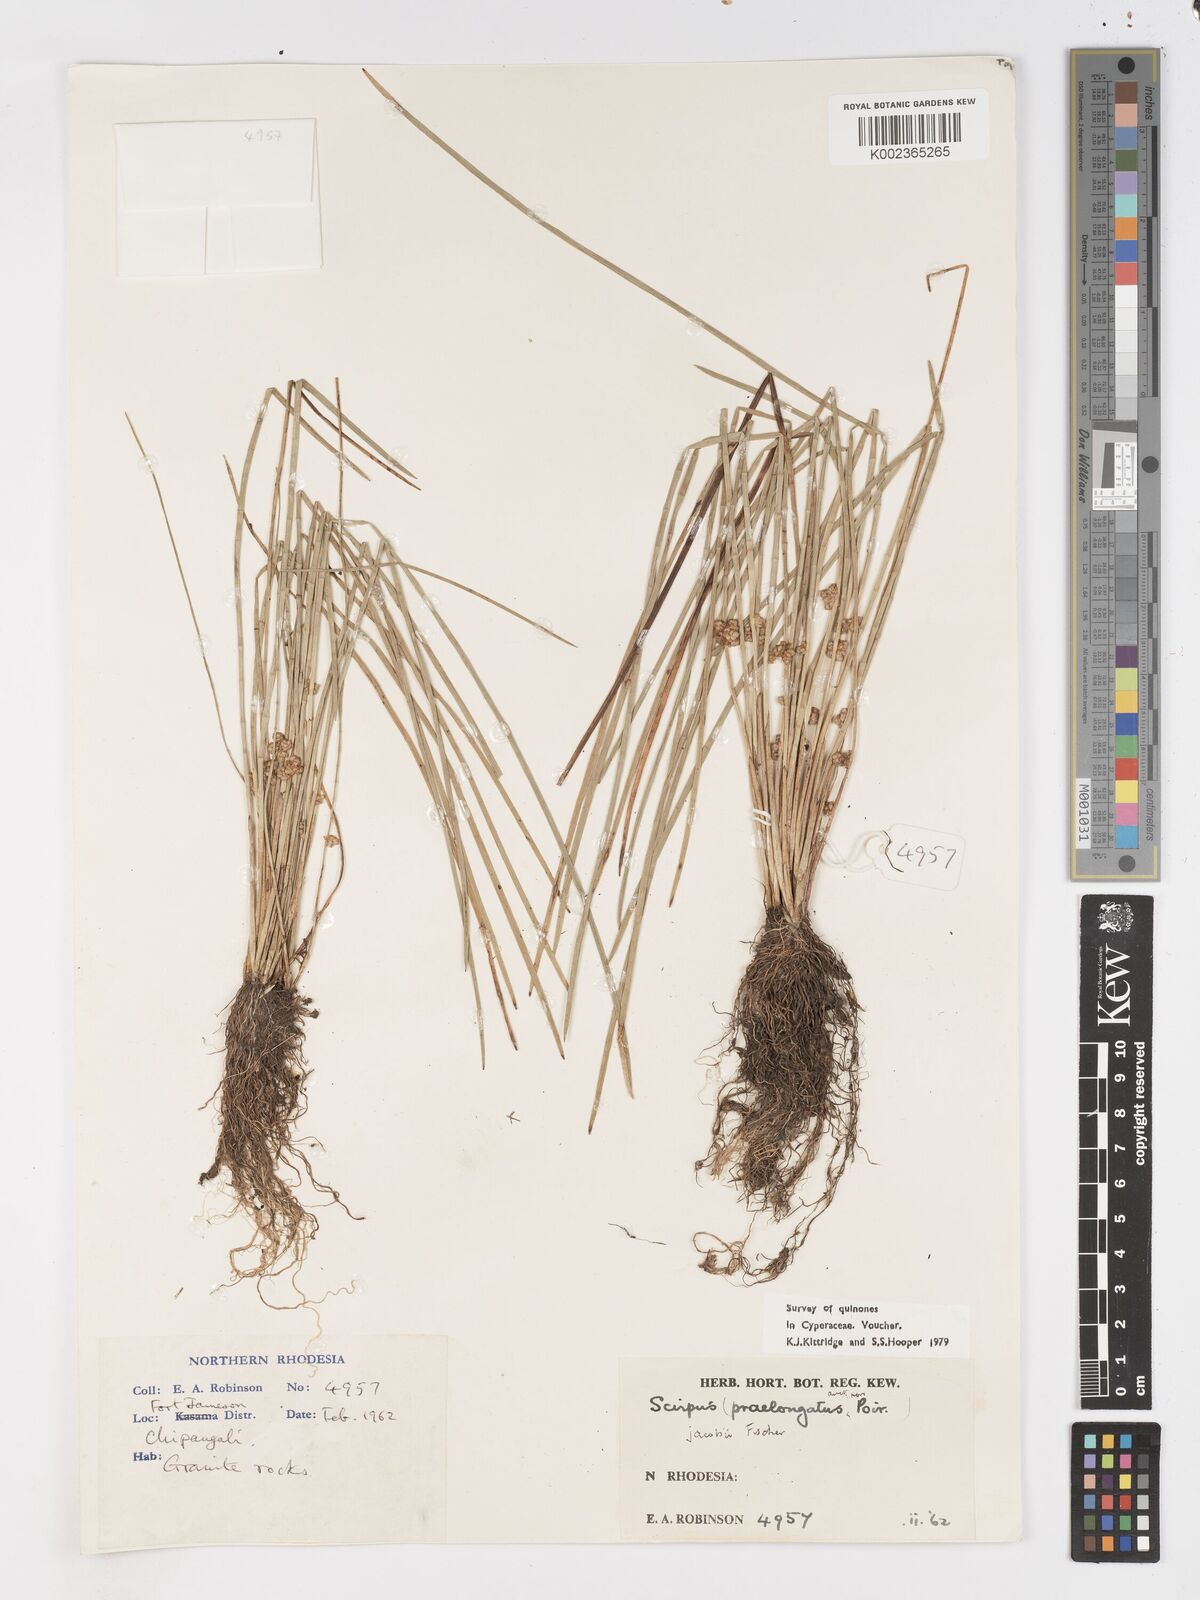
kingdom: Plantae
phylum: Tracheophyta
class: Liliopsida
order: Poales
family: Cyperaceae
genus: Schoenoplectiella
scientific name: Schoenoplectiella senegalensis
